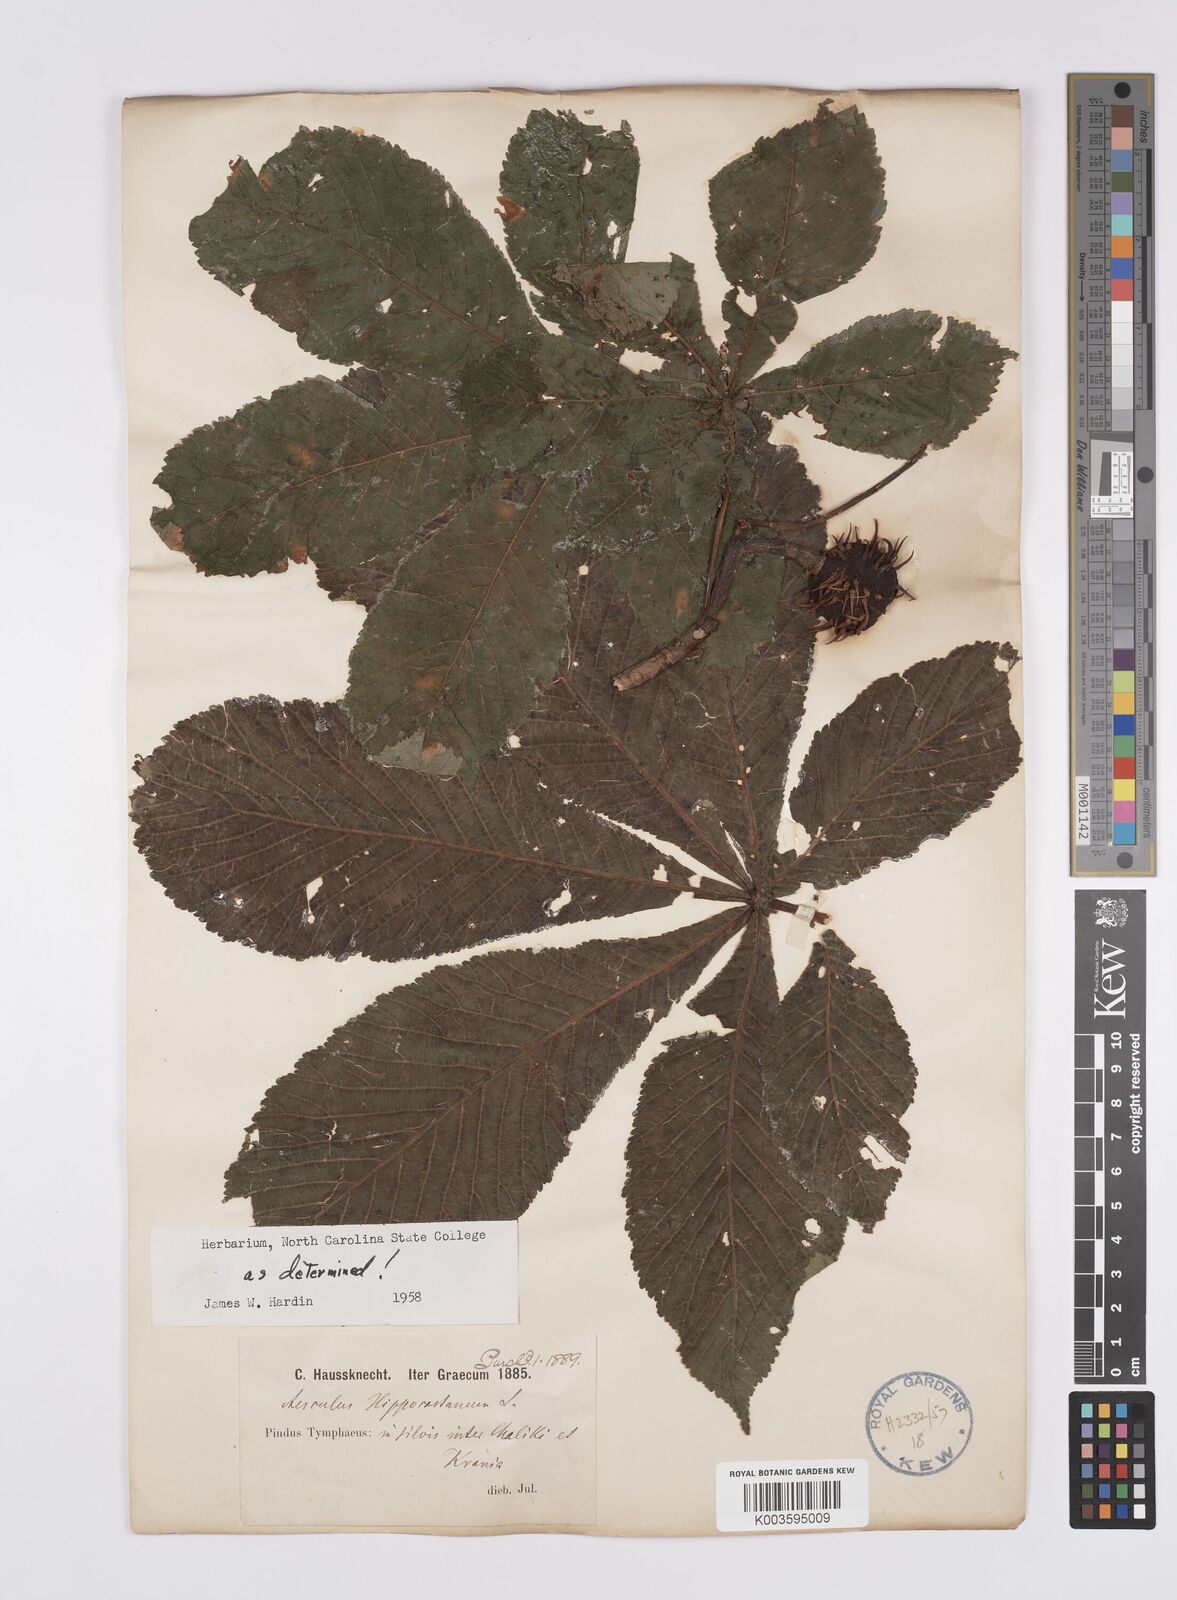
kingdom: Plantae
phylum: Tracheophyta
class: Magnoliopsida
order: Sapindales
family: Sapindaceae
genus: Aesculus
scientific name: Aesculus hippocastanum
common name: Horse-chestnut
